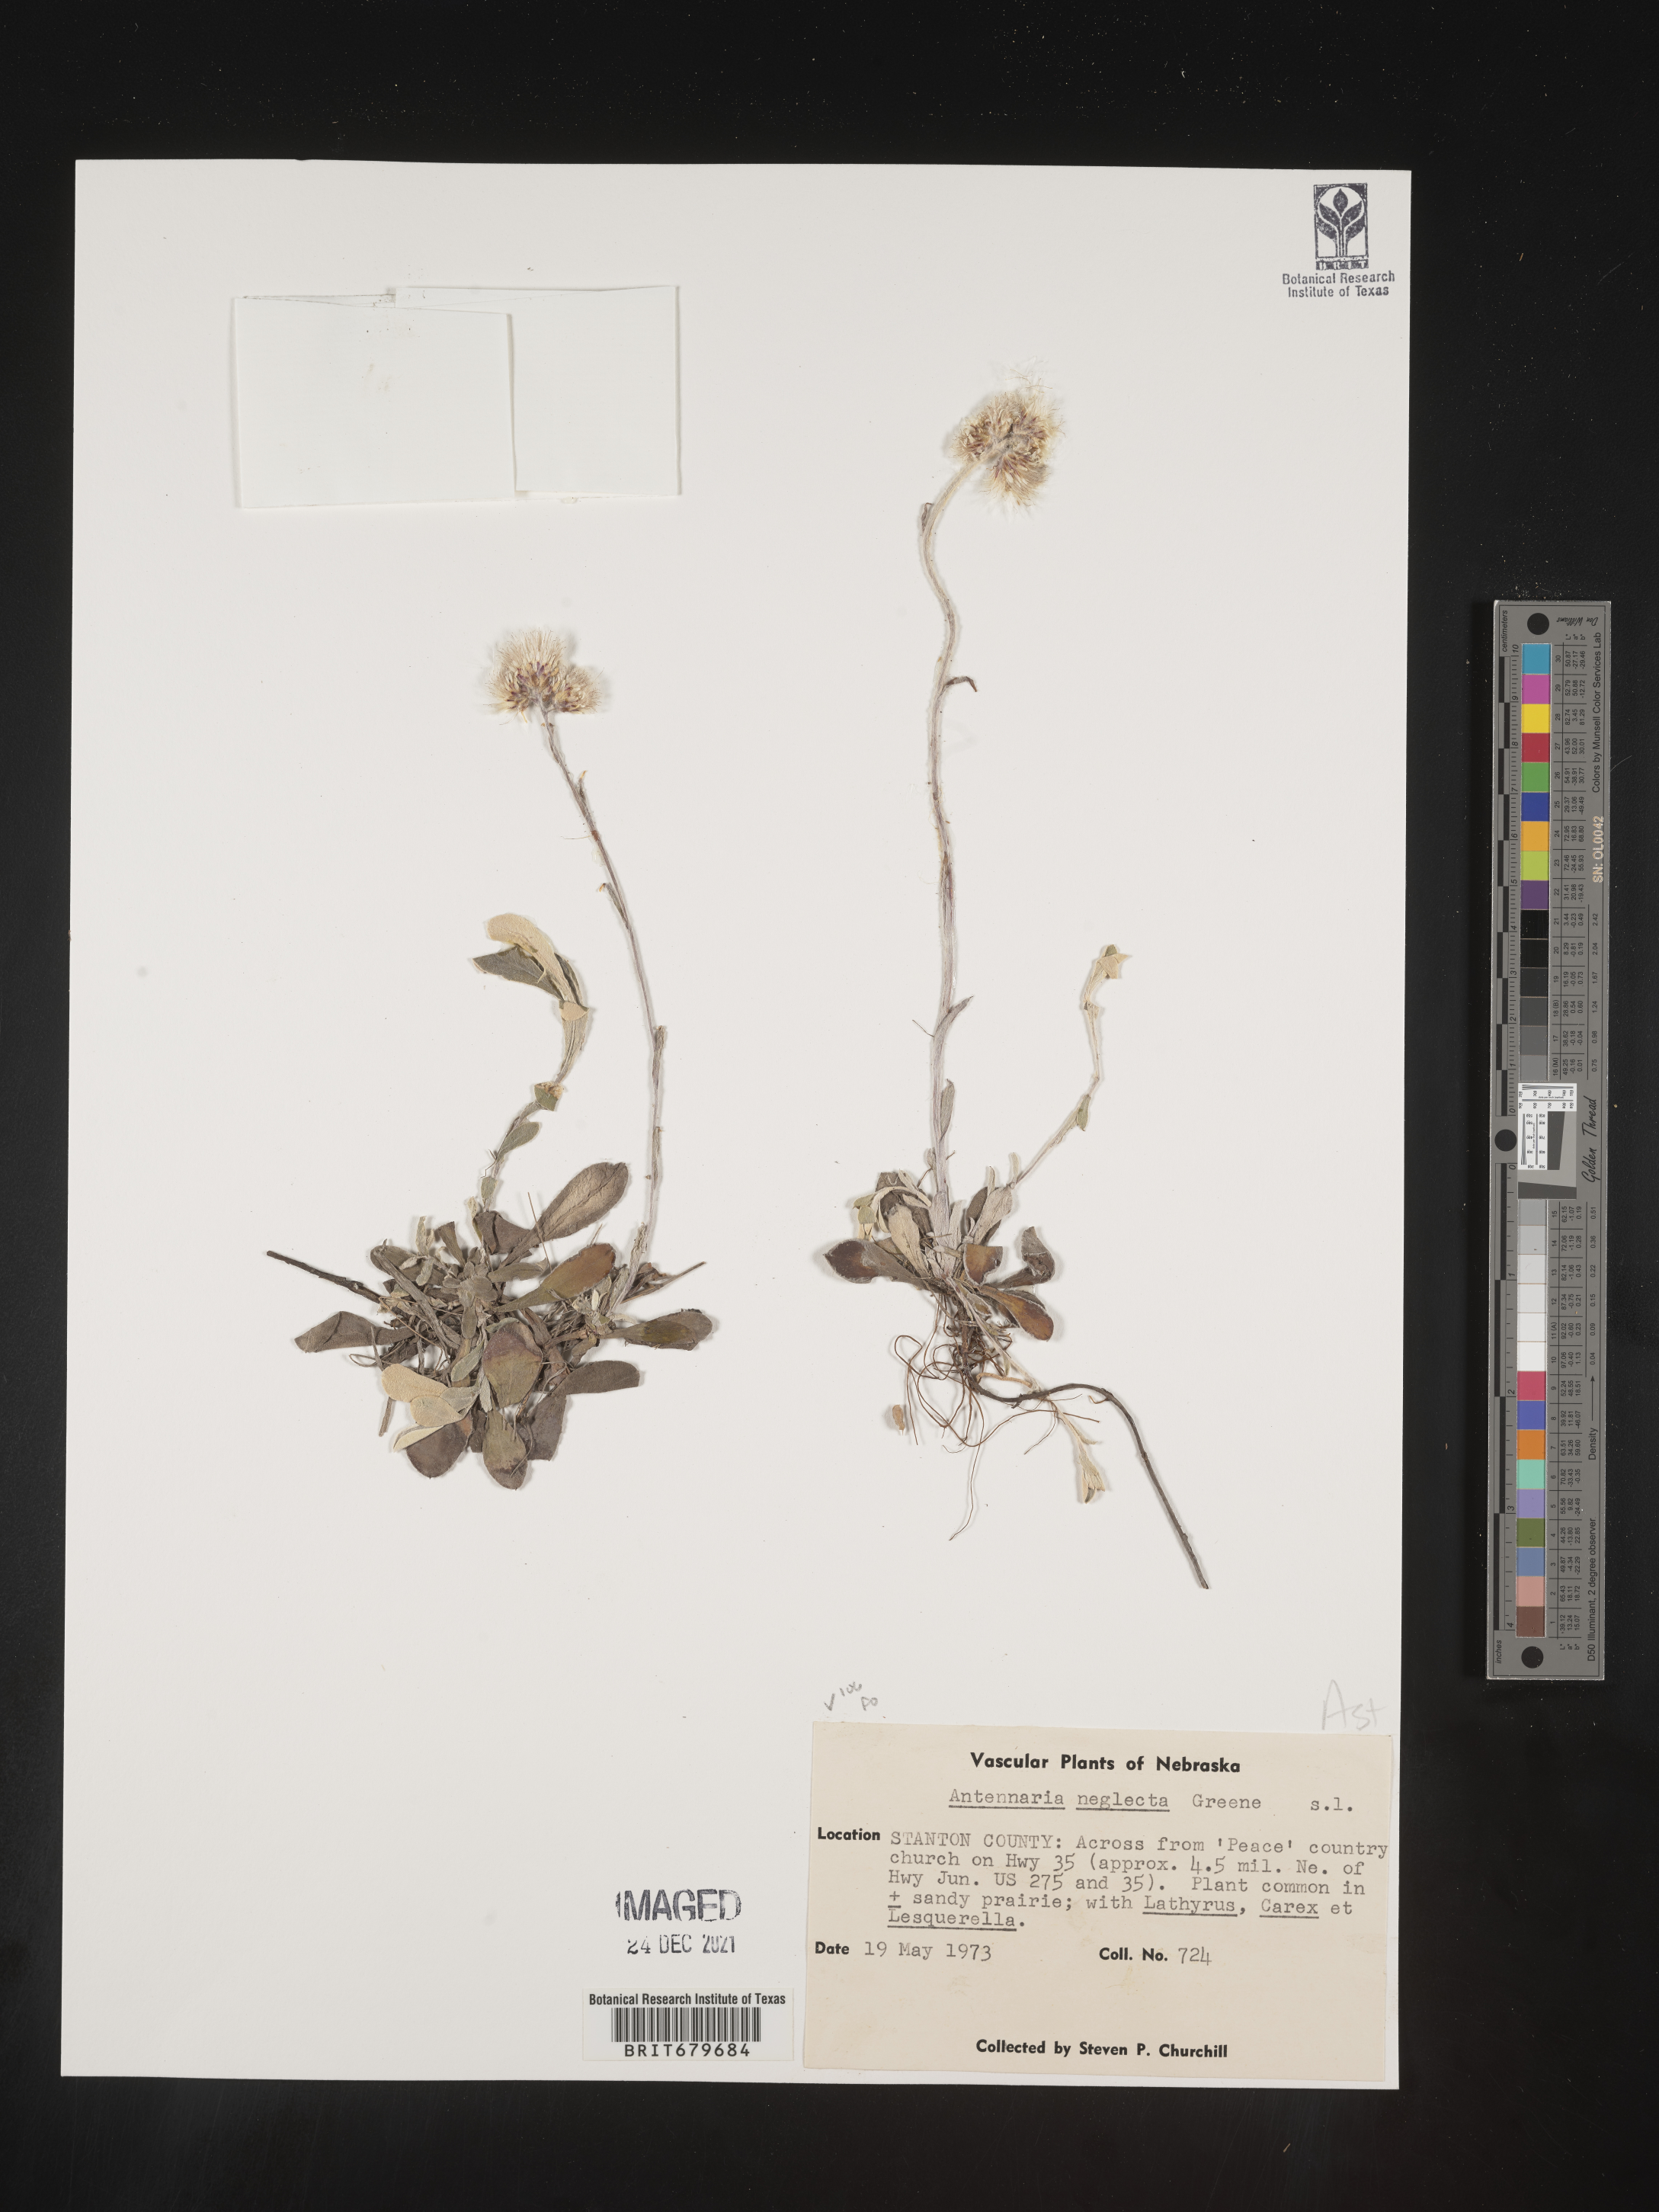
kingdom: Plantae
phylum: Tracheophyta
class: Magnoliopsida
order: Asterales
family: Asteraceae
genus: Antennaria
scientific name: Antennaria neglecta
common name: Field pussytoes
